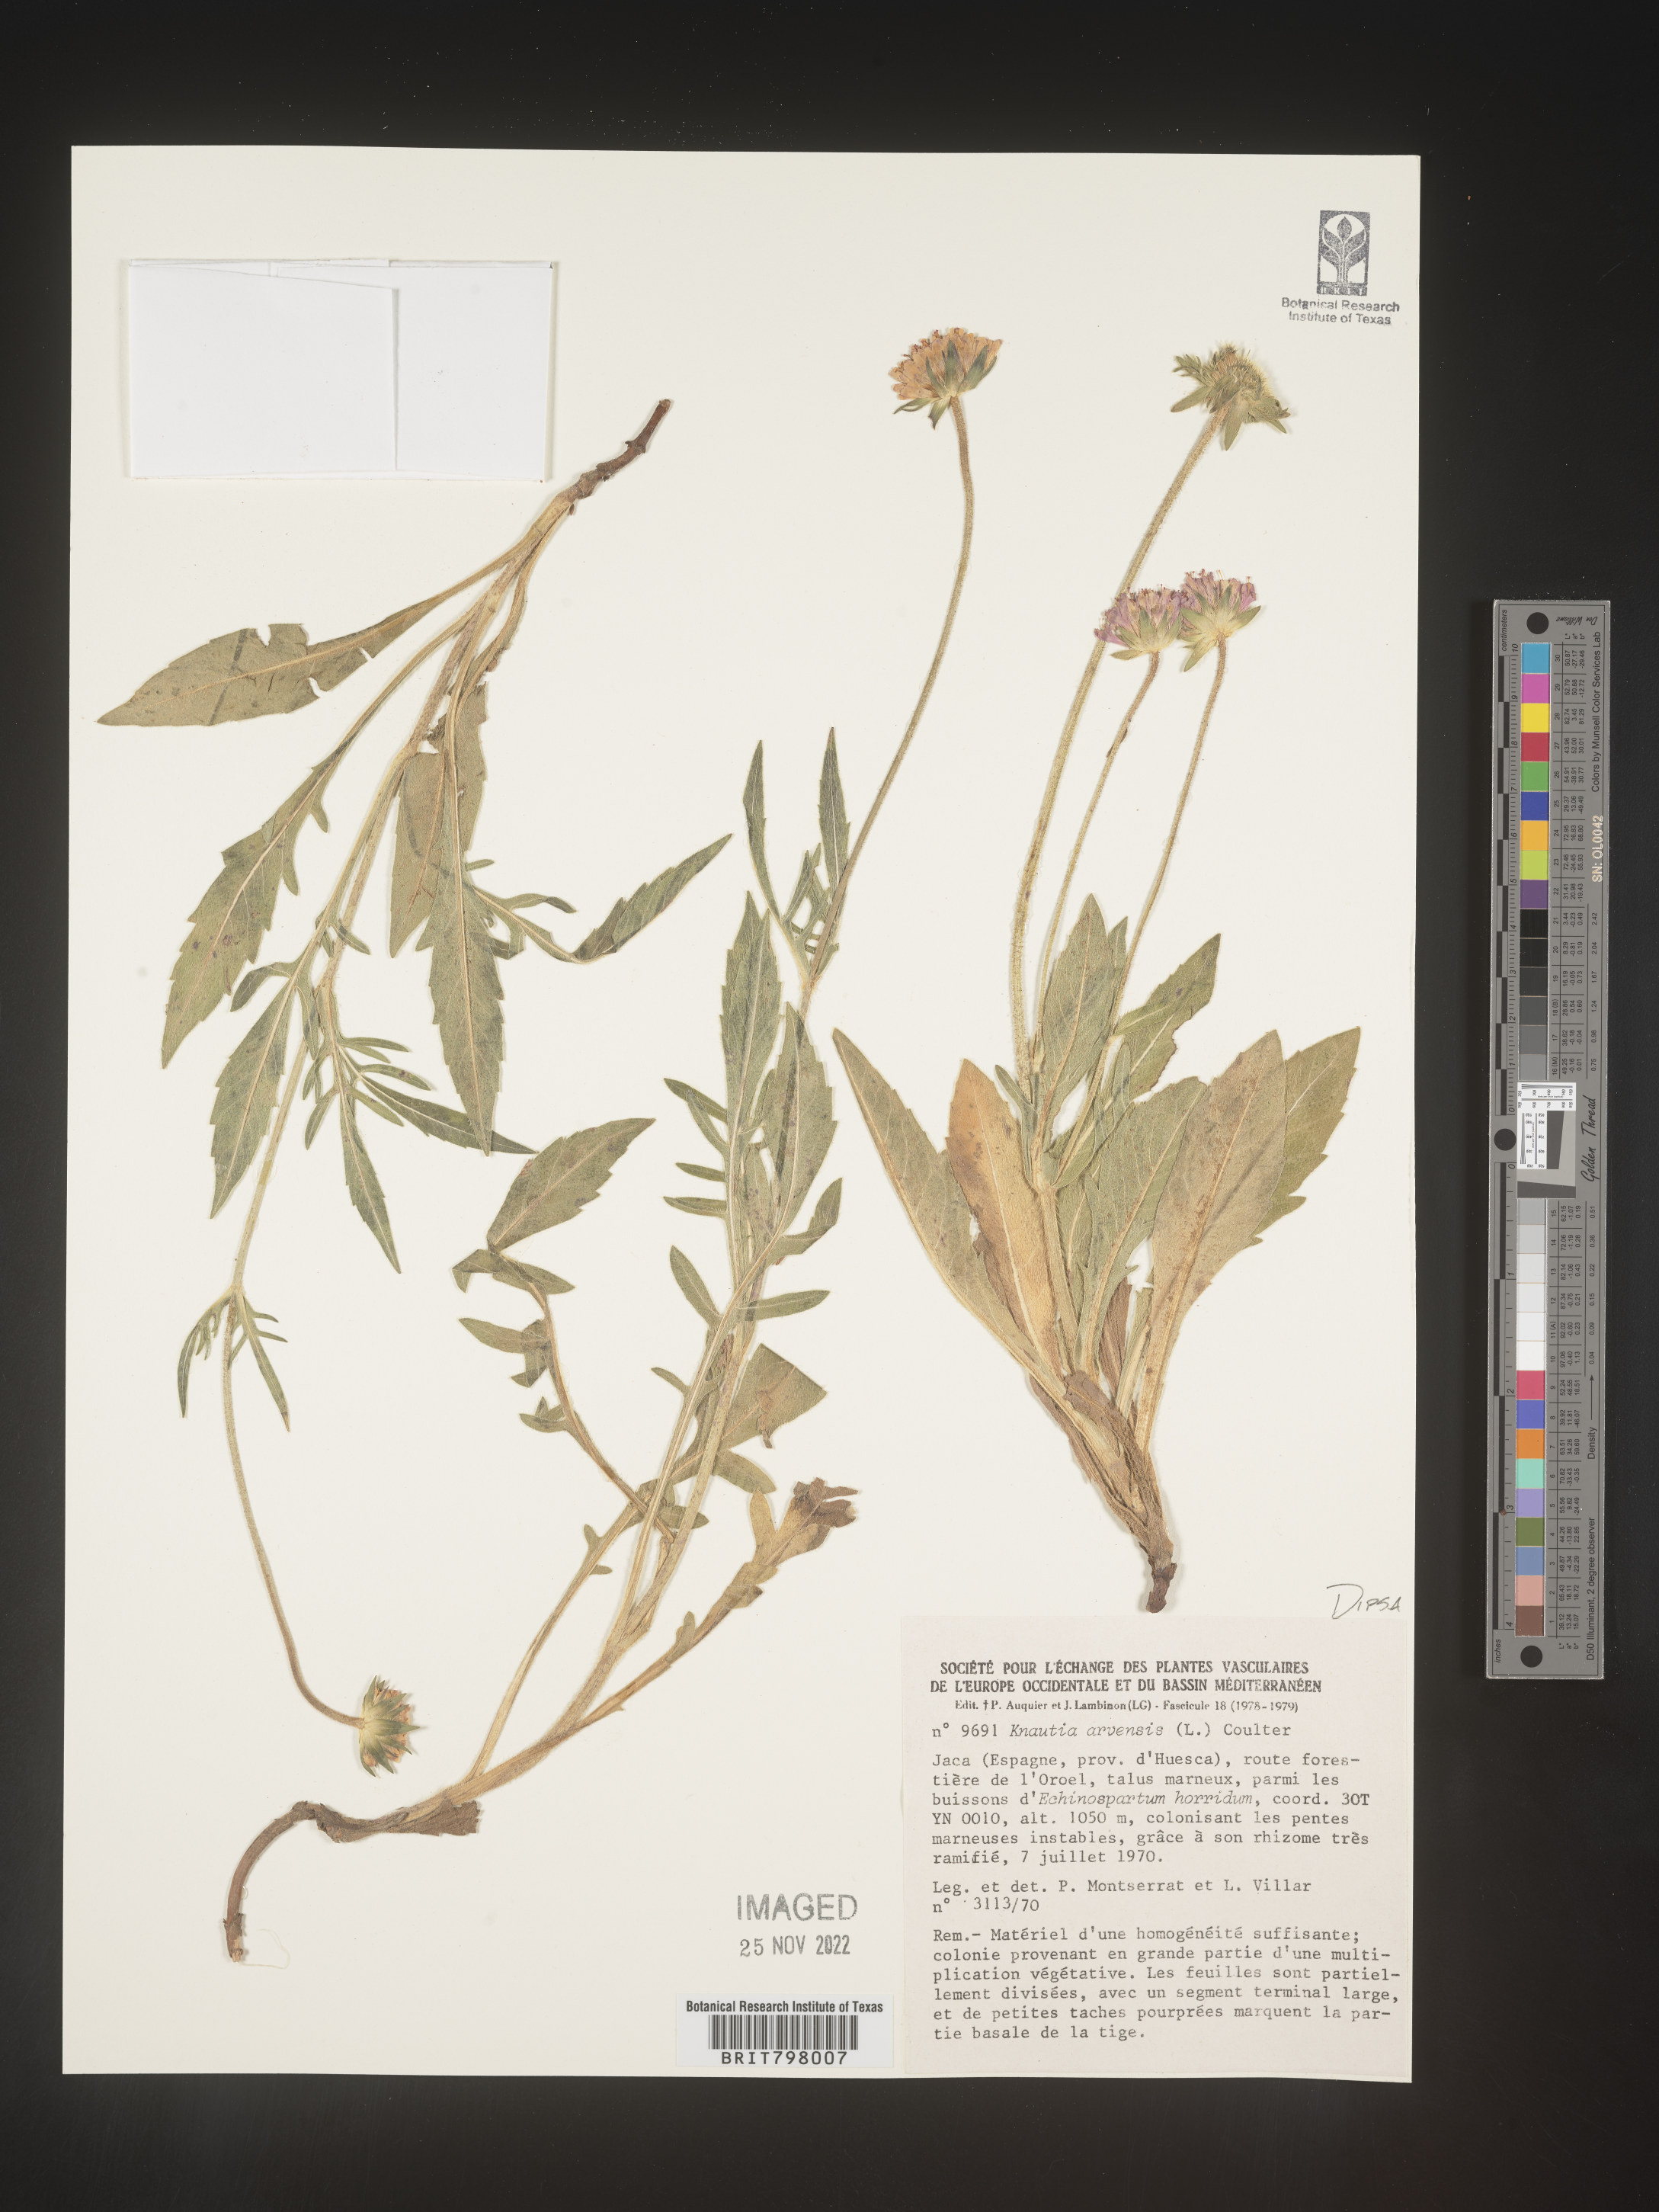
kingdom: Plantae
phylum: Tracheophyta
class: Magnoliopsida
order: Dipsacales
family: Caprifoliaceae
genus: Knautia
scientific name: Knautia
